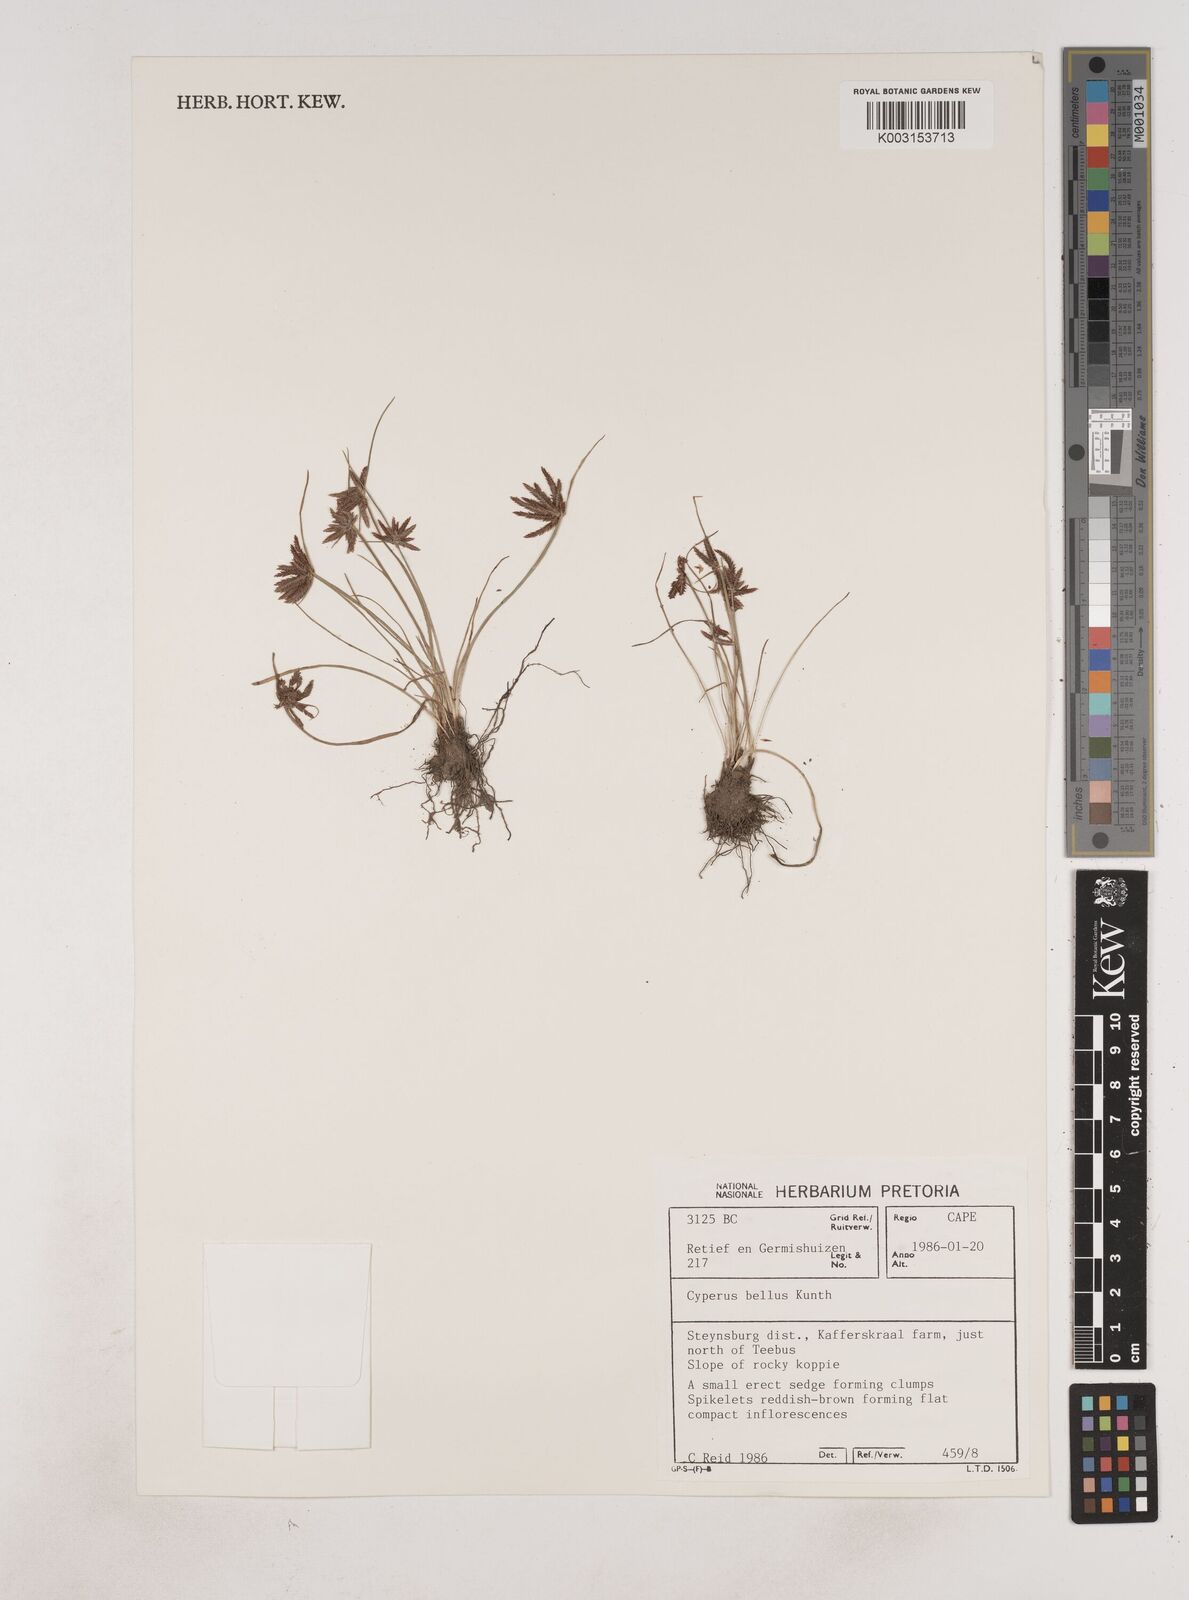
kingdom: Plantae
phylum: Tracheophyta
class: Liliopsida
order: Poales
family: Cyperaceae
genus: Cyperus
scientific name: Cyperus remotiflorus
